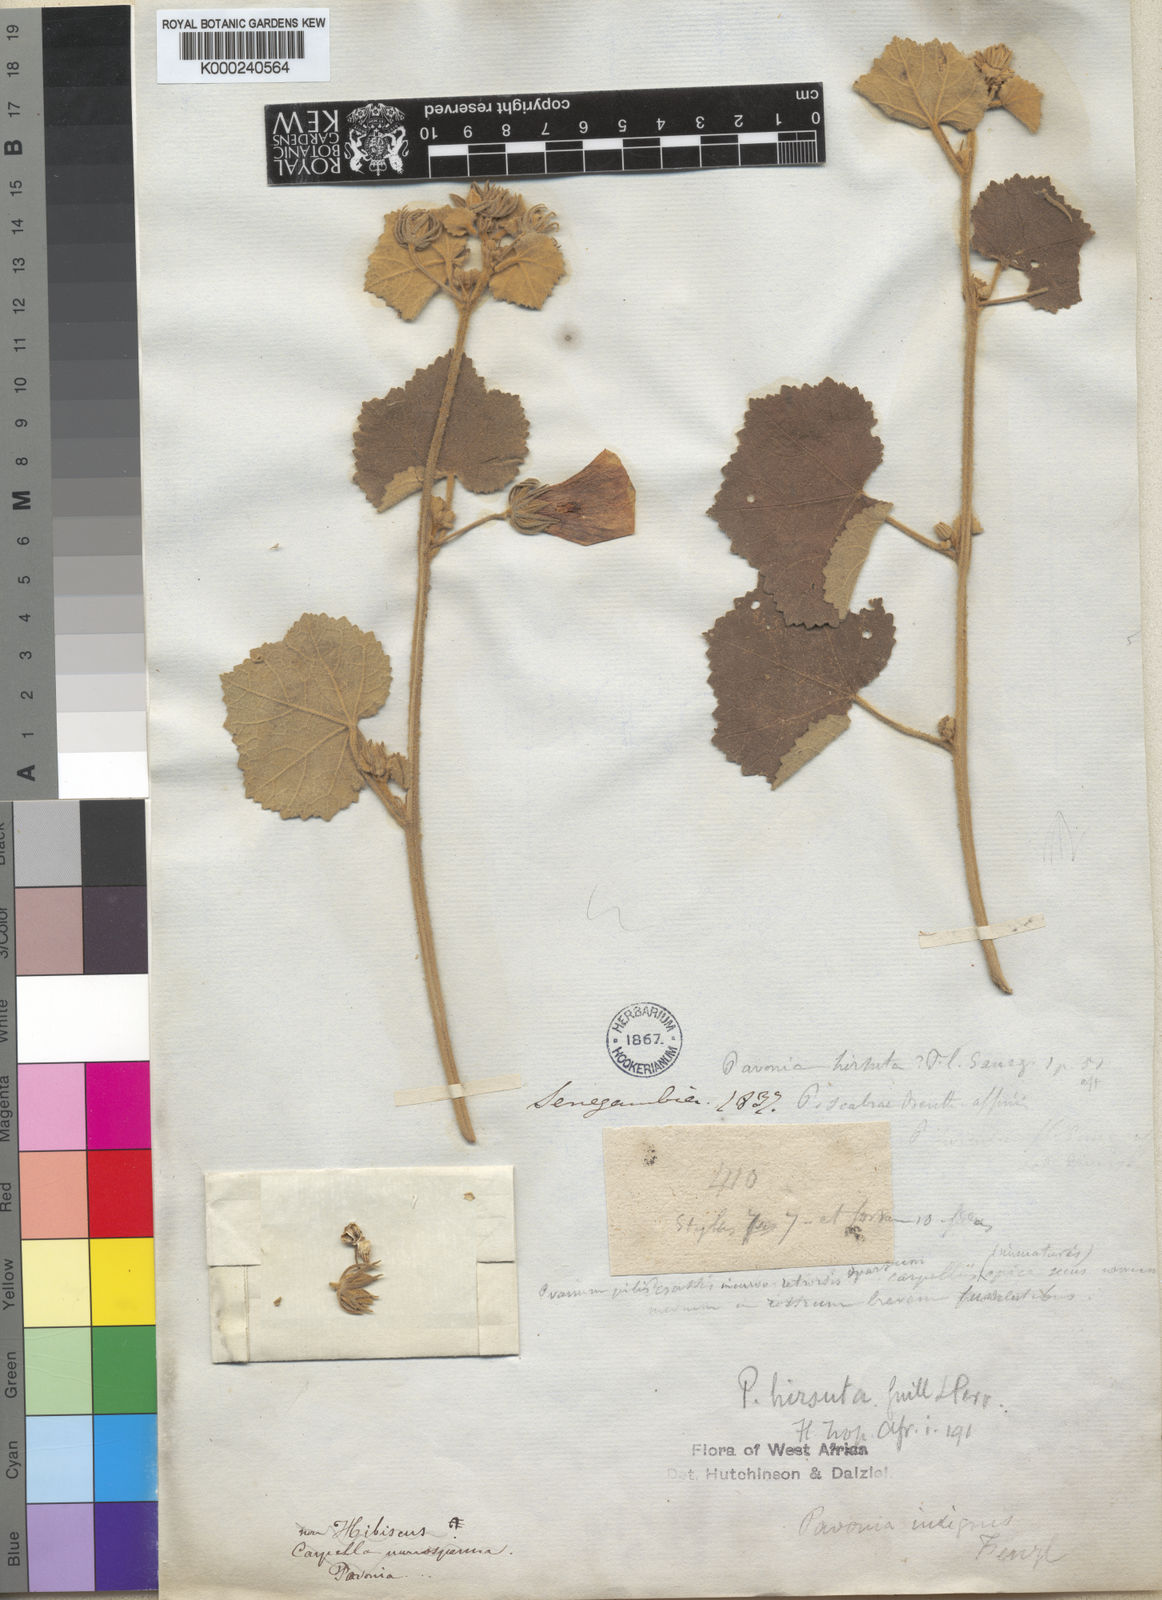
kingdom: Plantae
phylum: Tracheophyta
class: Magnoliopsida
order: Malvales
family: Malvaceae
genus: Pavonia
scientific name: Pavonia senegalensis
